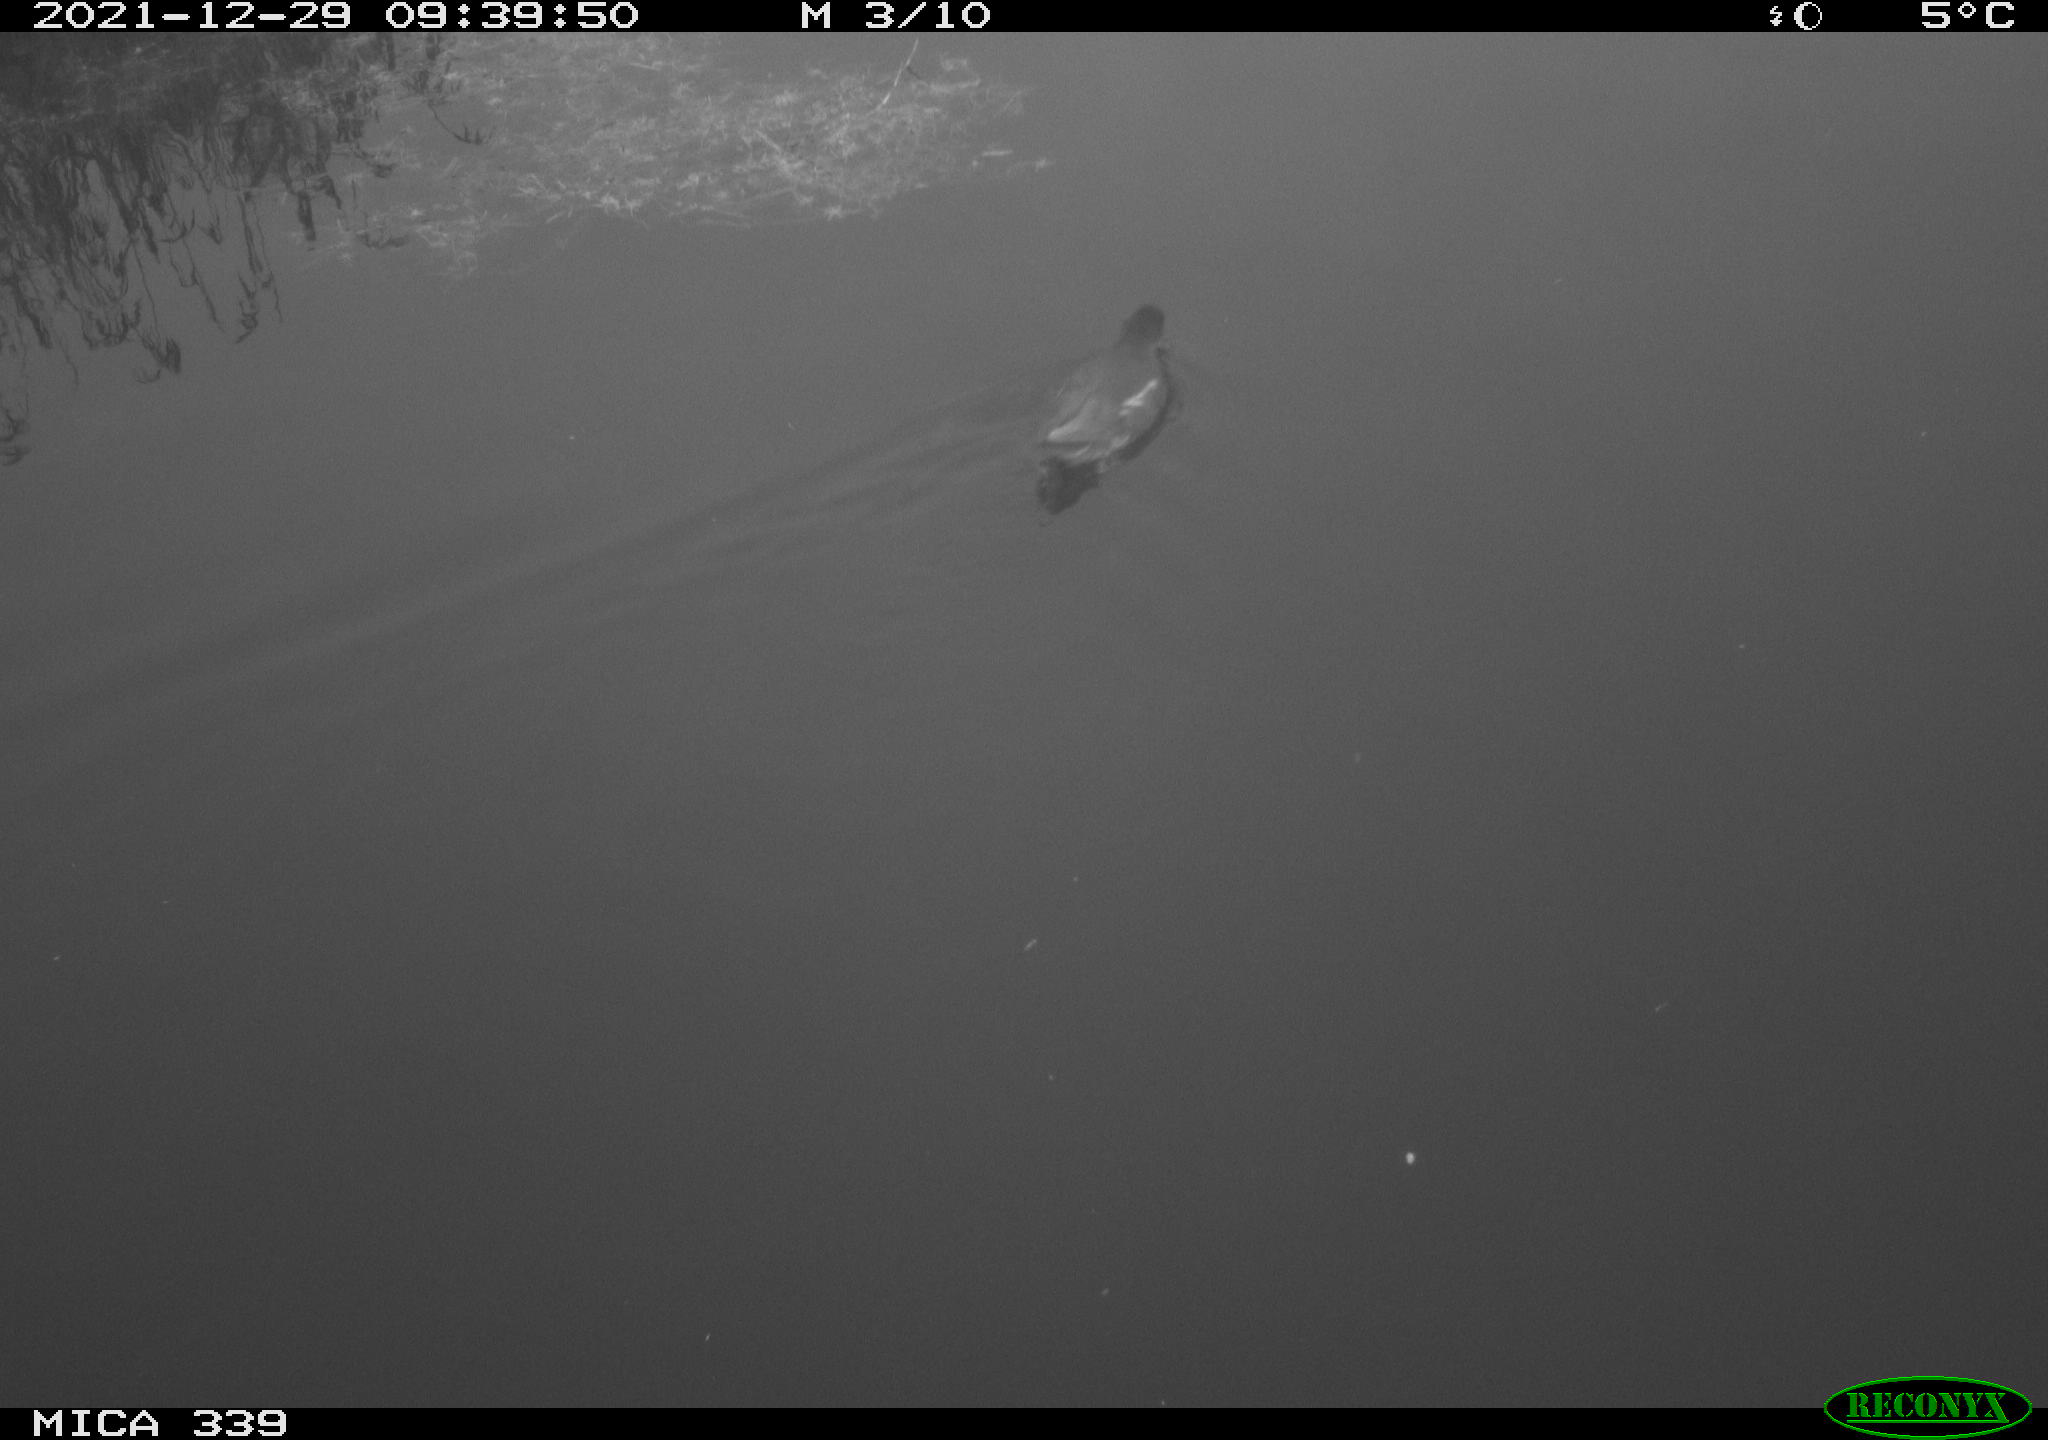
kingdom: Animalia
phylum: Chordata
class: Aves
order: Gruiformes
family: Rallidae
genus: Gallinula
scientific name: Gallinula chloropus
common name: Common moorhen
